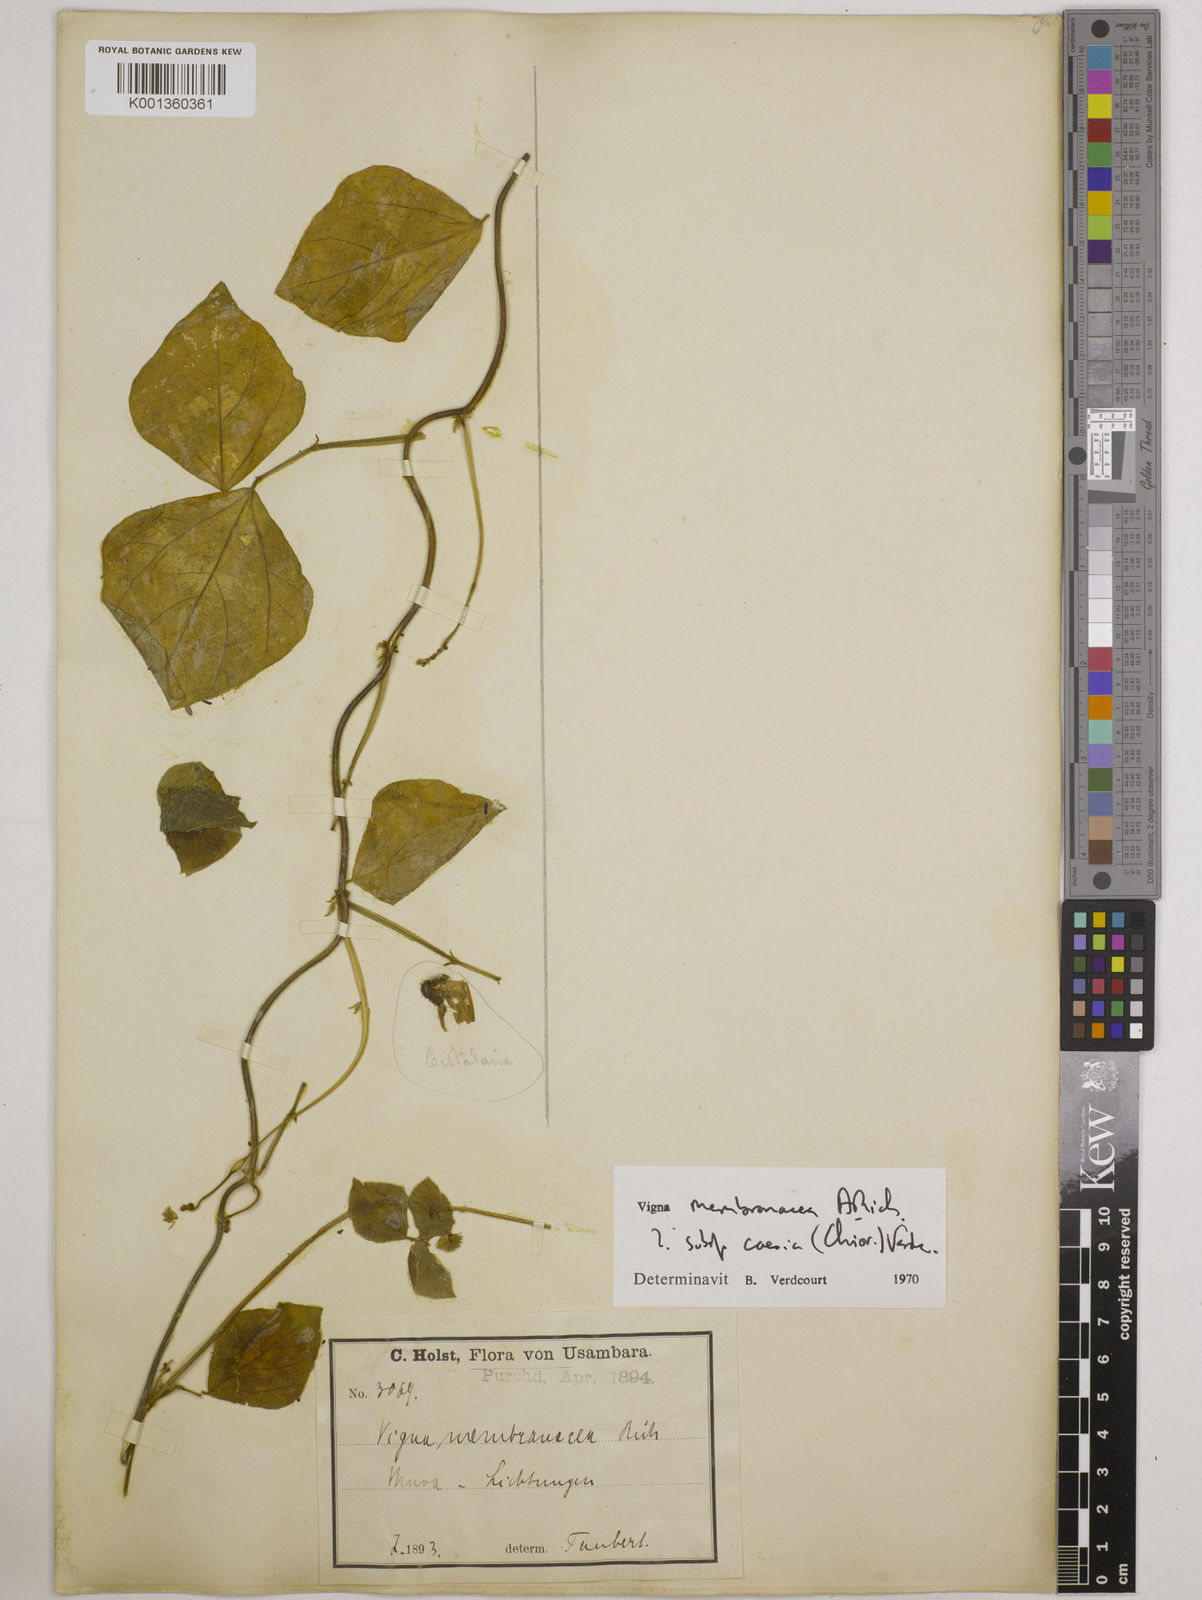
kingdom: Plantae
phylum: Tracheophyta
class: Magnoliopsida
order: Fabales
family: Fabaceae
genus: Vigna
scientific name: Vigna
